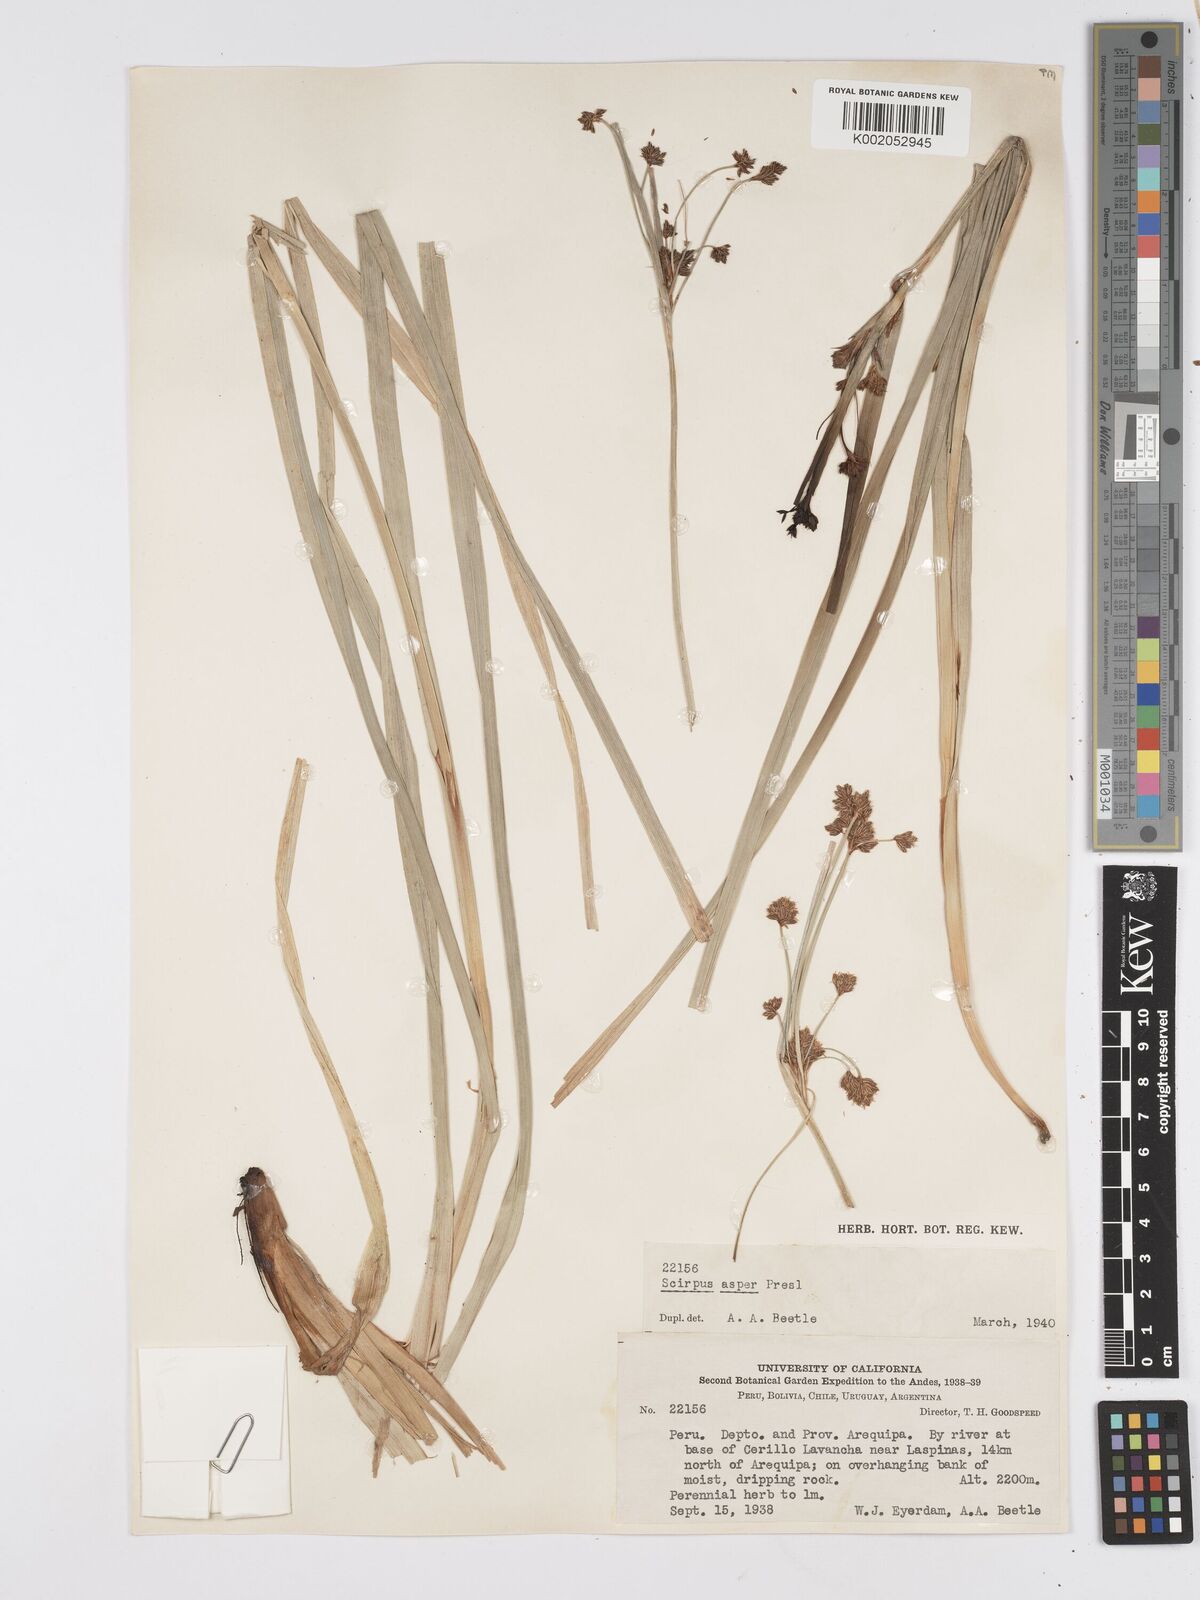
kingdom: Plantae
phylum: Tracheophyta
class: Liliopsida
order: Poales
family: Cyperaceae
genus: Rhodoscirpus
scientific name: Rhodoscirpus asper
